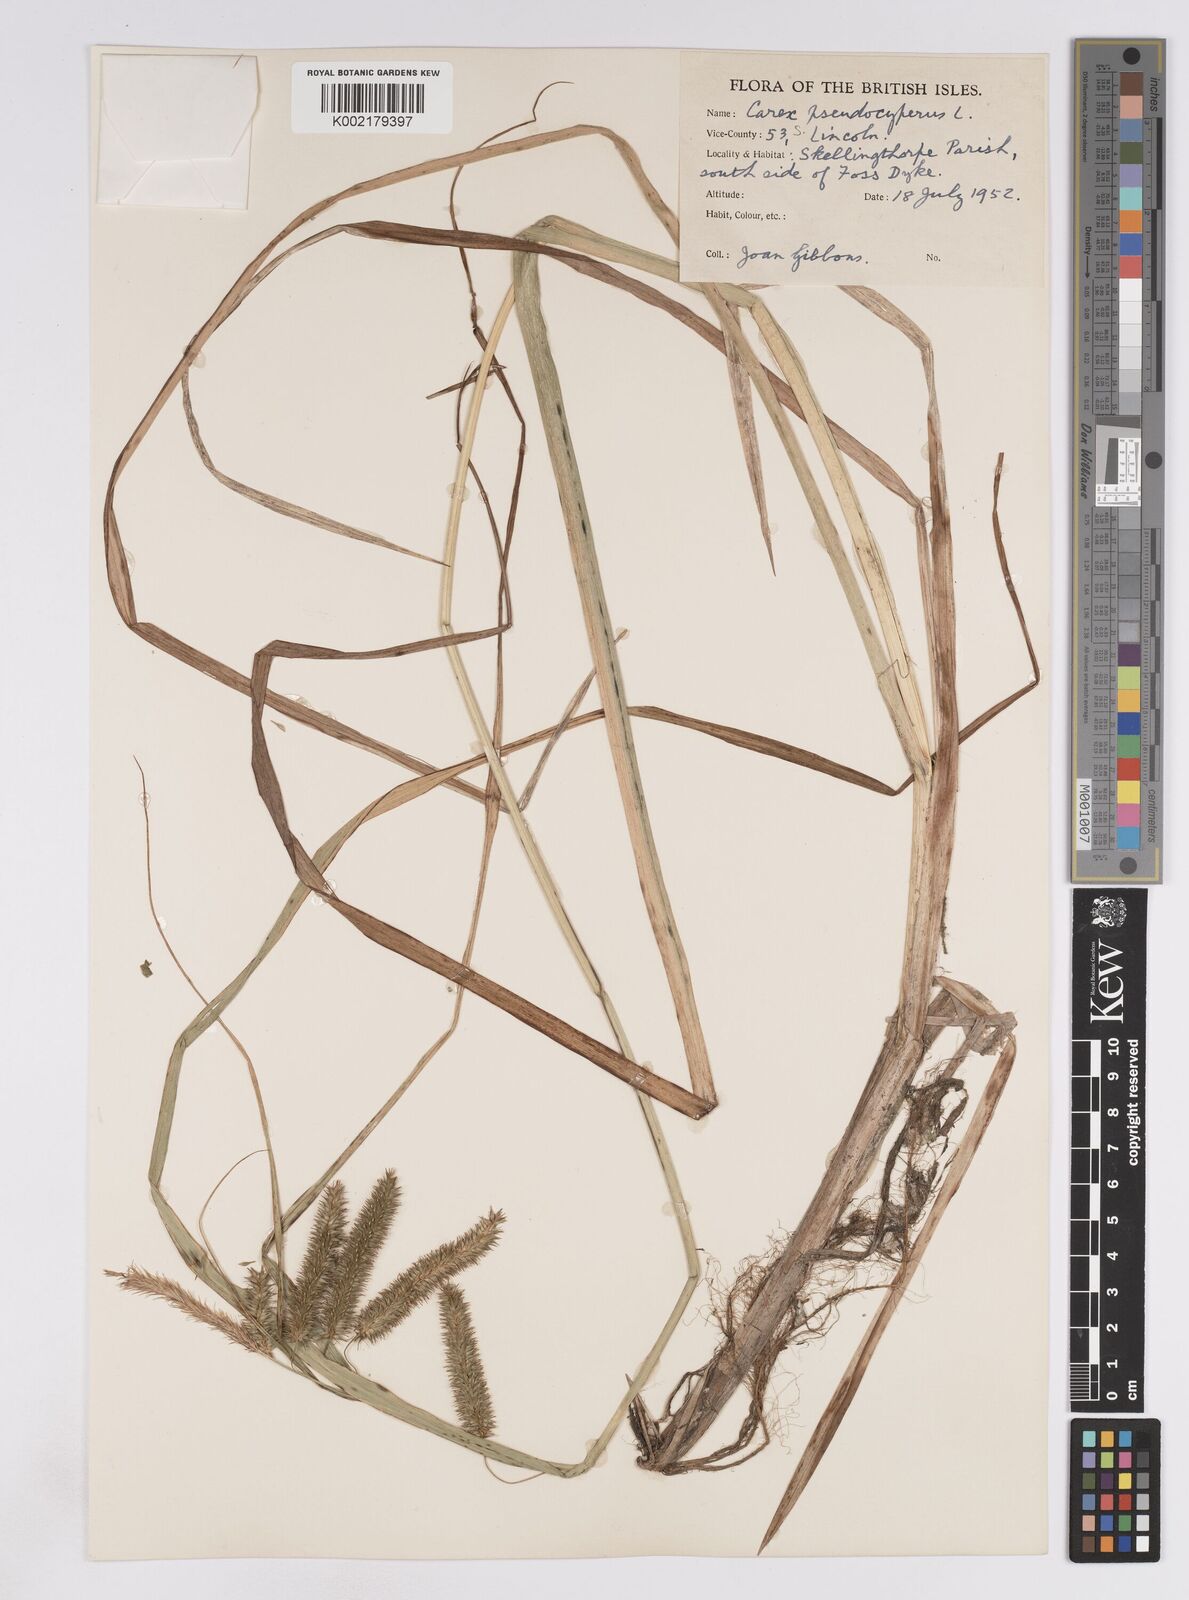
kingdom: Plantae
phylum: Tracheophyta
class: Liliopsida
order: Poales
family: Cyperaceae
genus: Carex
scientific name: Carex pseudocyperus
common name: Cyperus sedge
